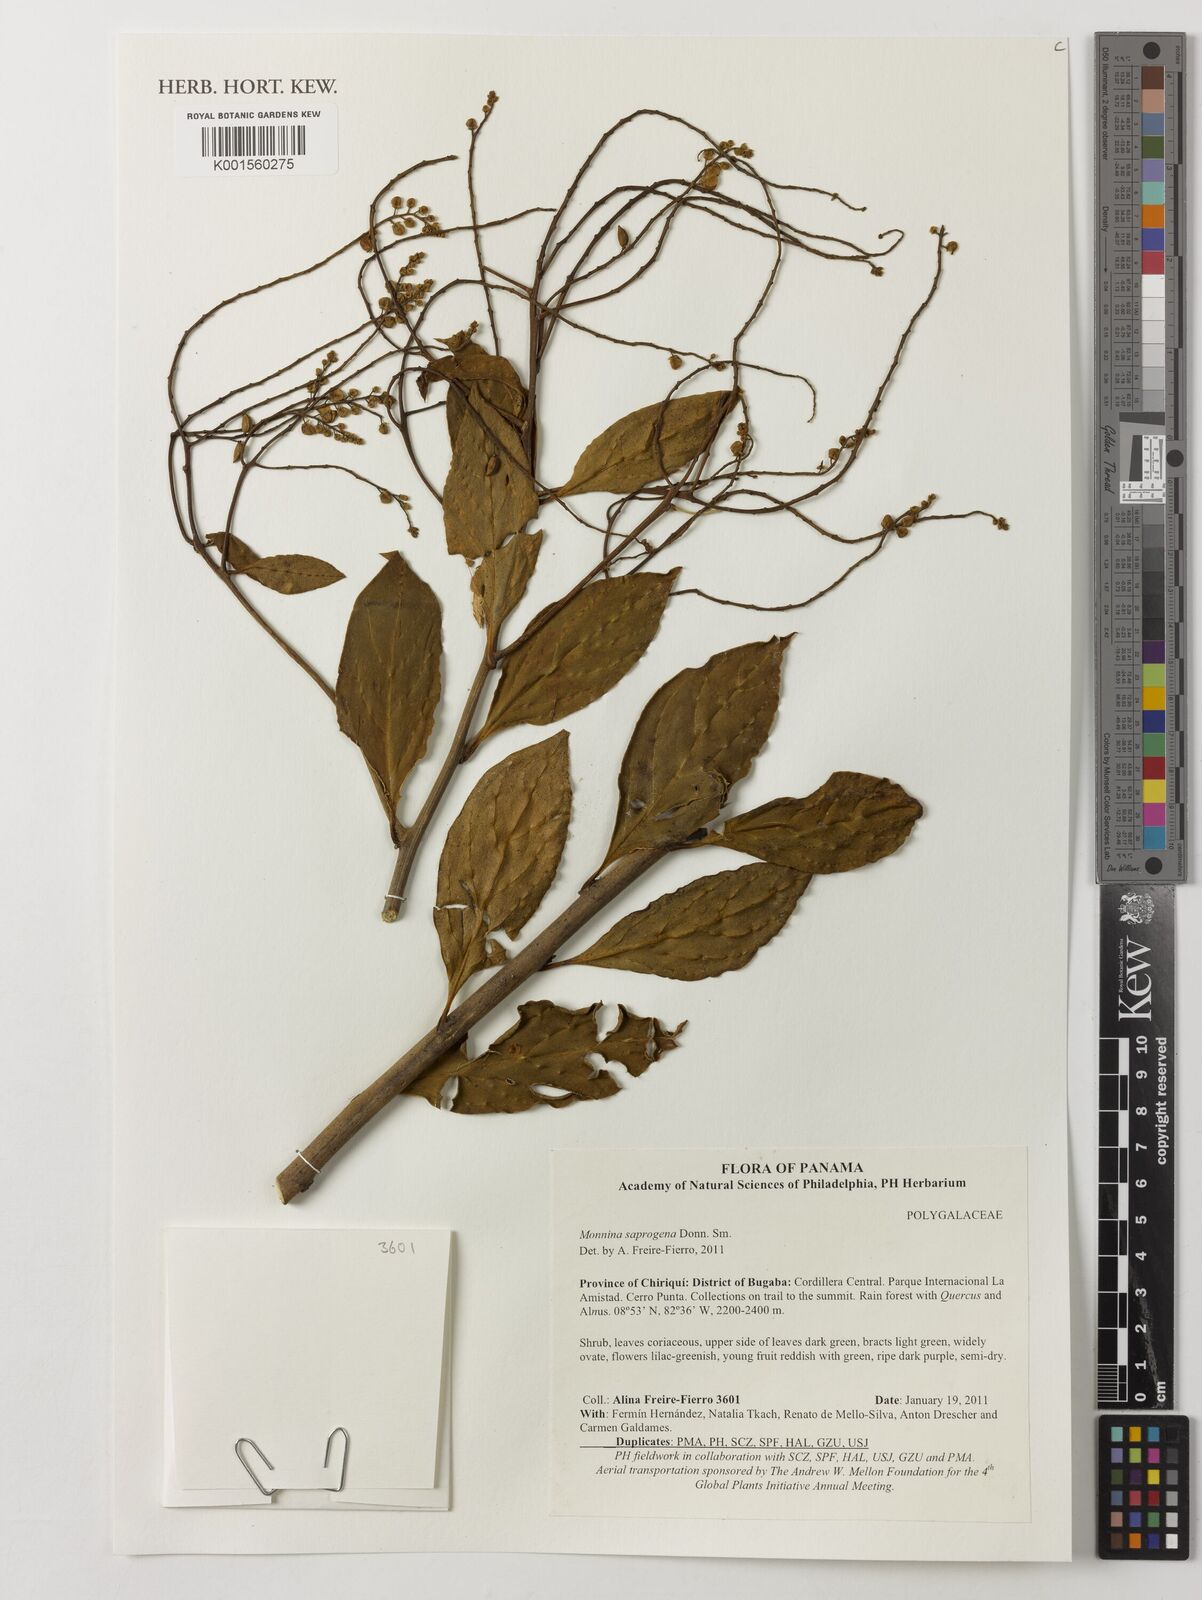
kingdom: Plantae
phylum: Tracheophyta
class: Magnoliopsida
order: Fabales
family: Polygalaceae
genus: Monnina
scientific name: Monnina saprogena
